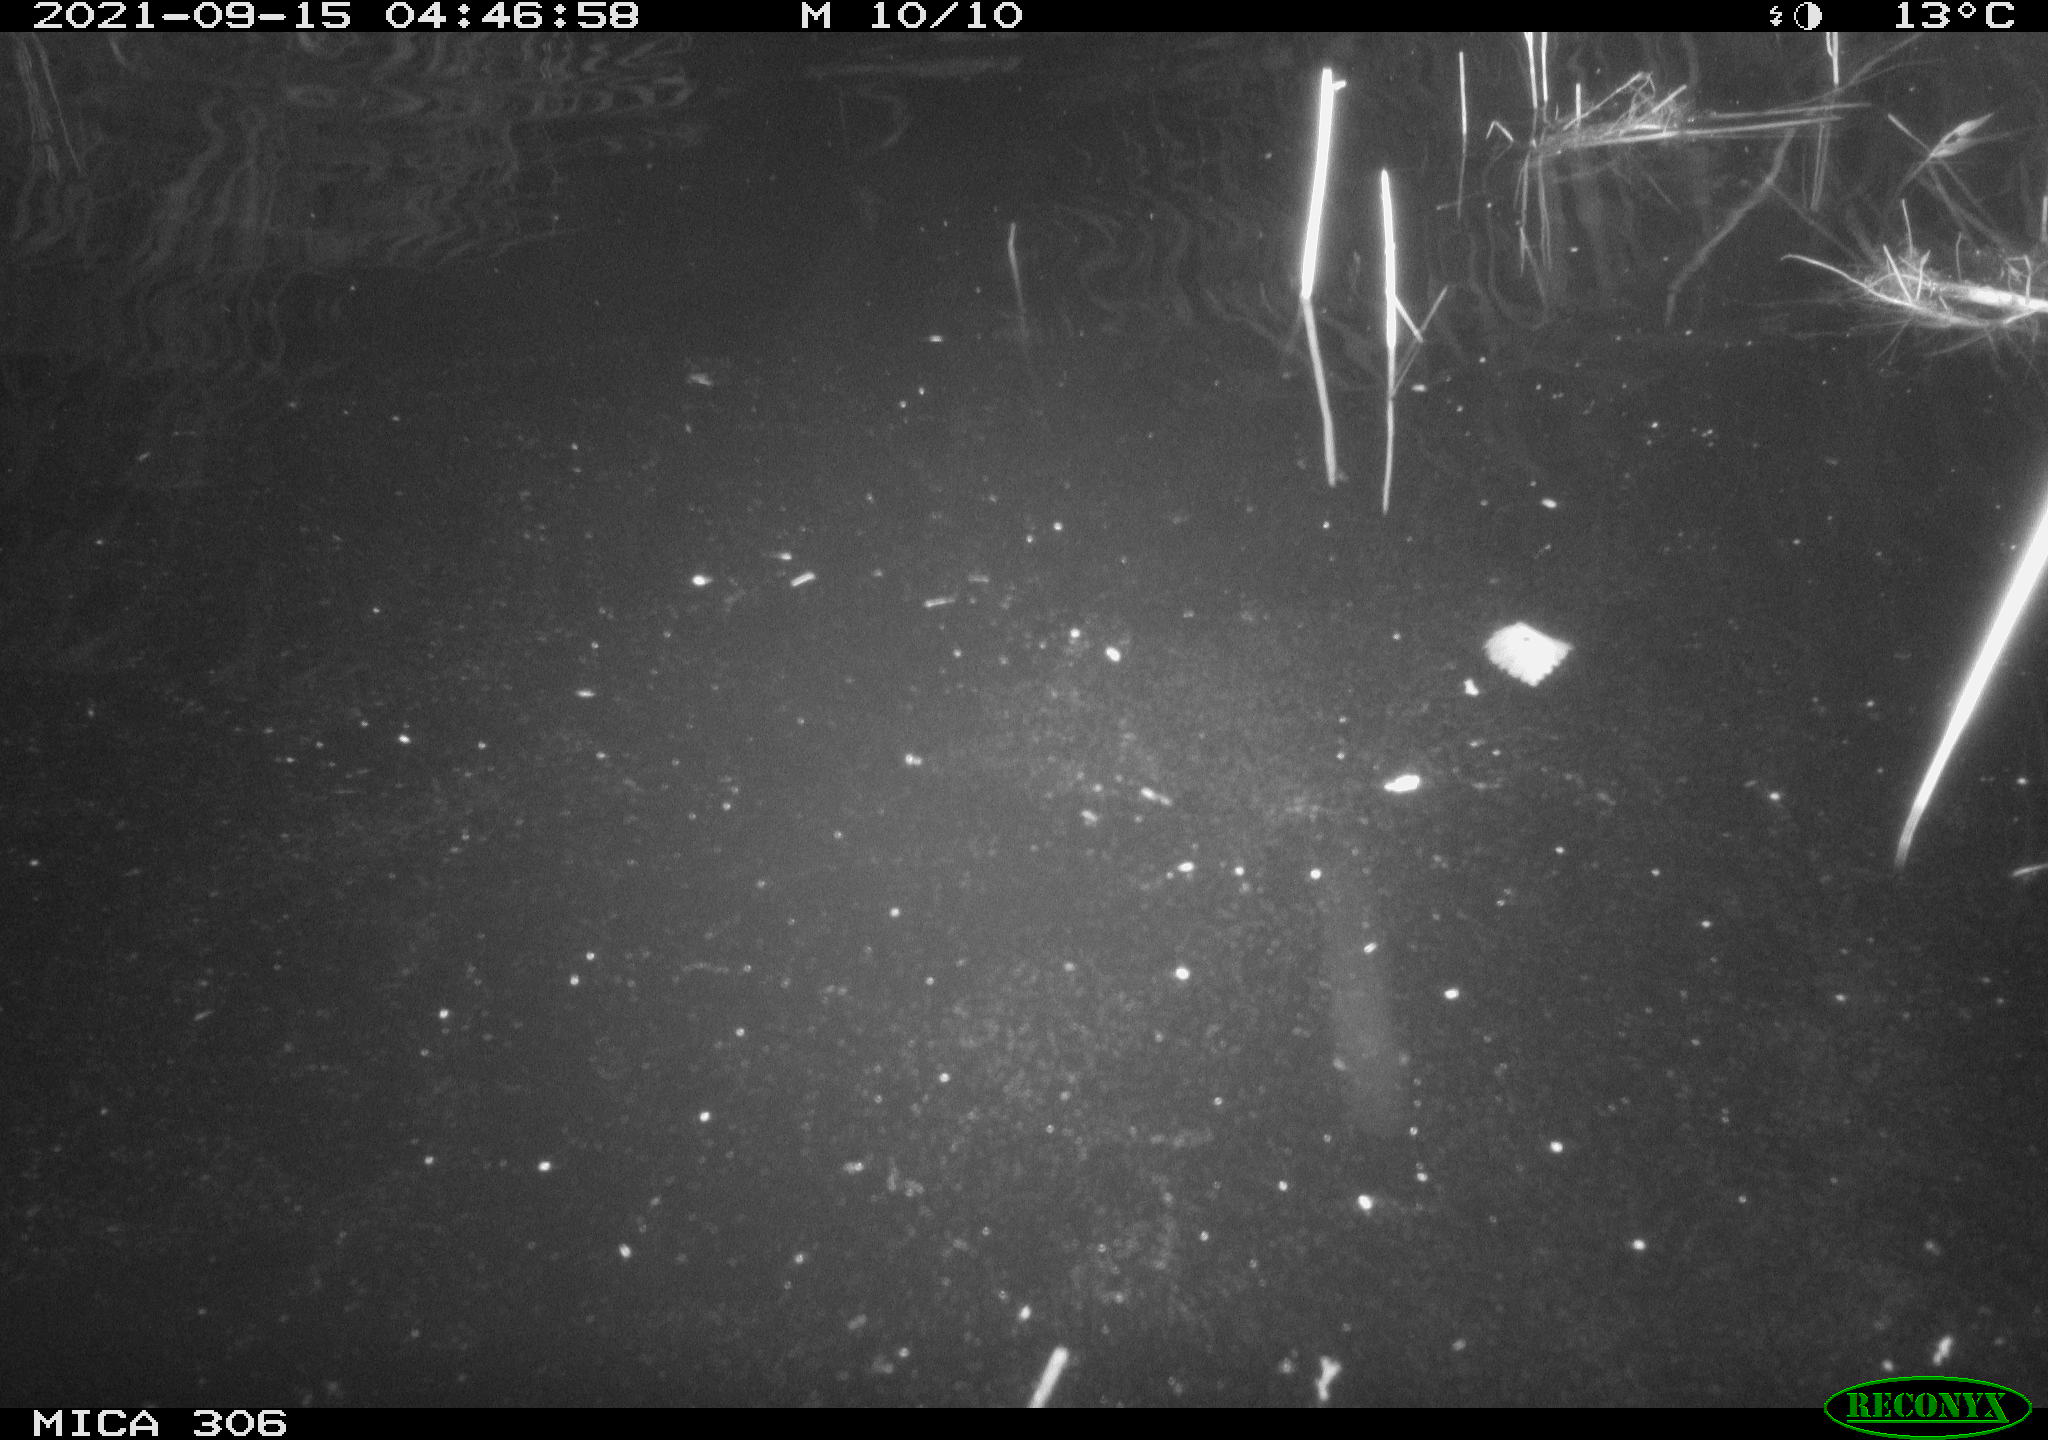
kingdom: Animalia
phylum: Chordata
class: Mammalia
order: Rodentia
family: Cricetidae
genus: Ondatra
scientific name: Ondatra zibethicus
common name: Muskrat
